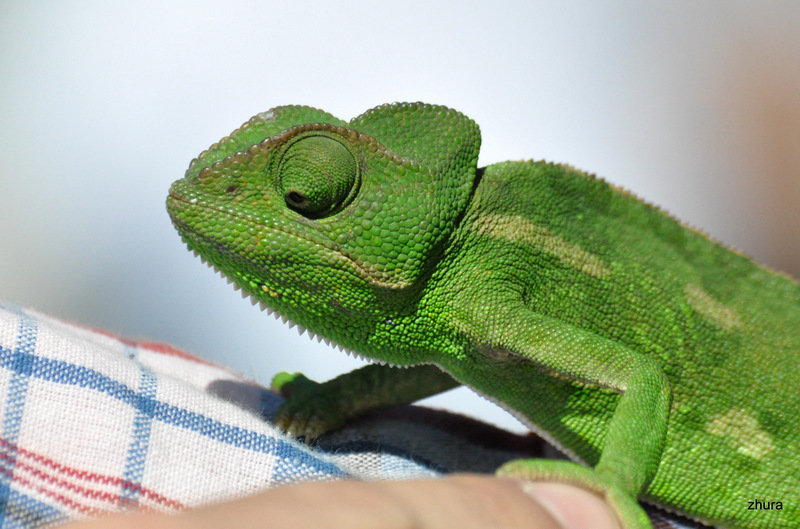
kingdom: Animalia
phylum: Chordata
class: Squamata
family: Chamaeleonidae
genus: Chamaeleo
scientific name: Chamaeleo chamaeleon
